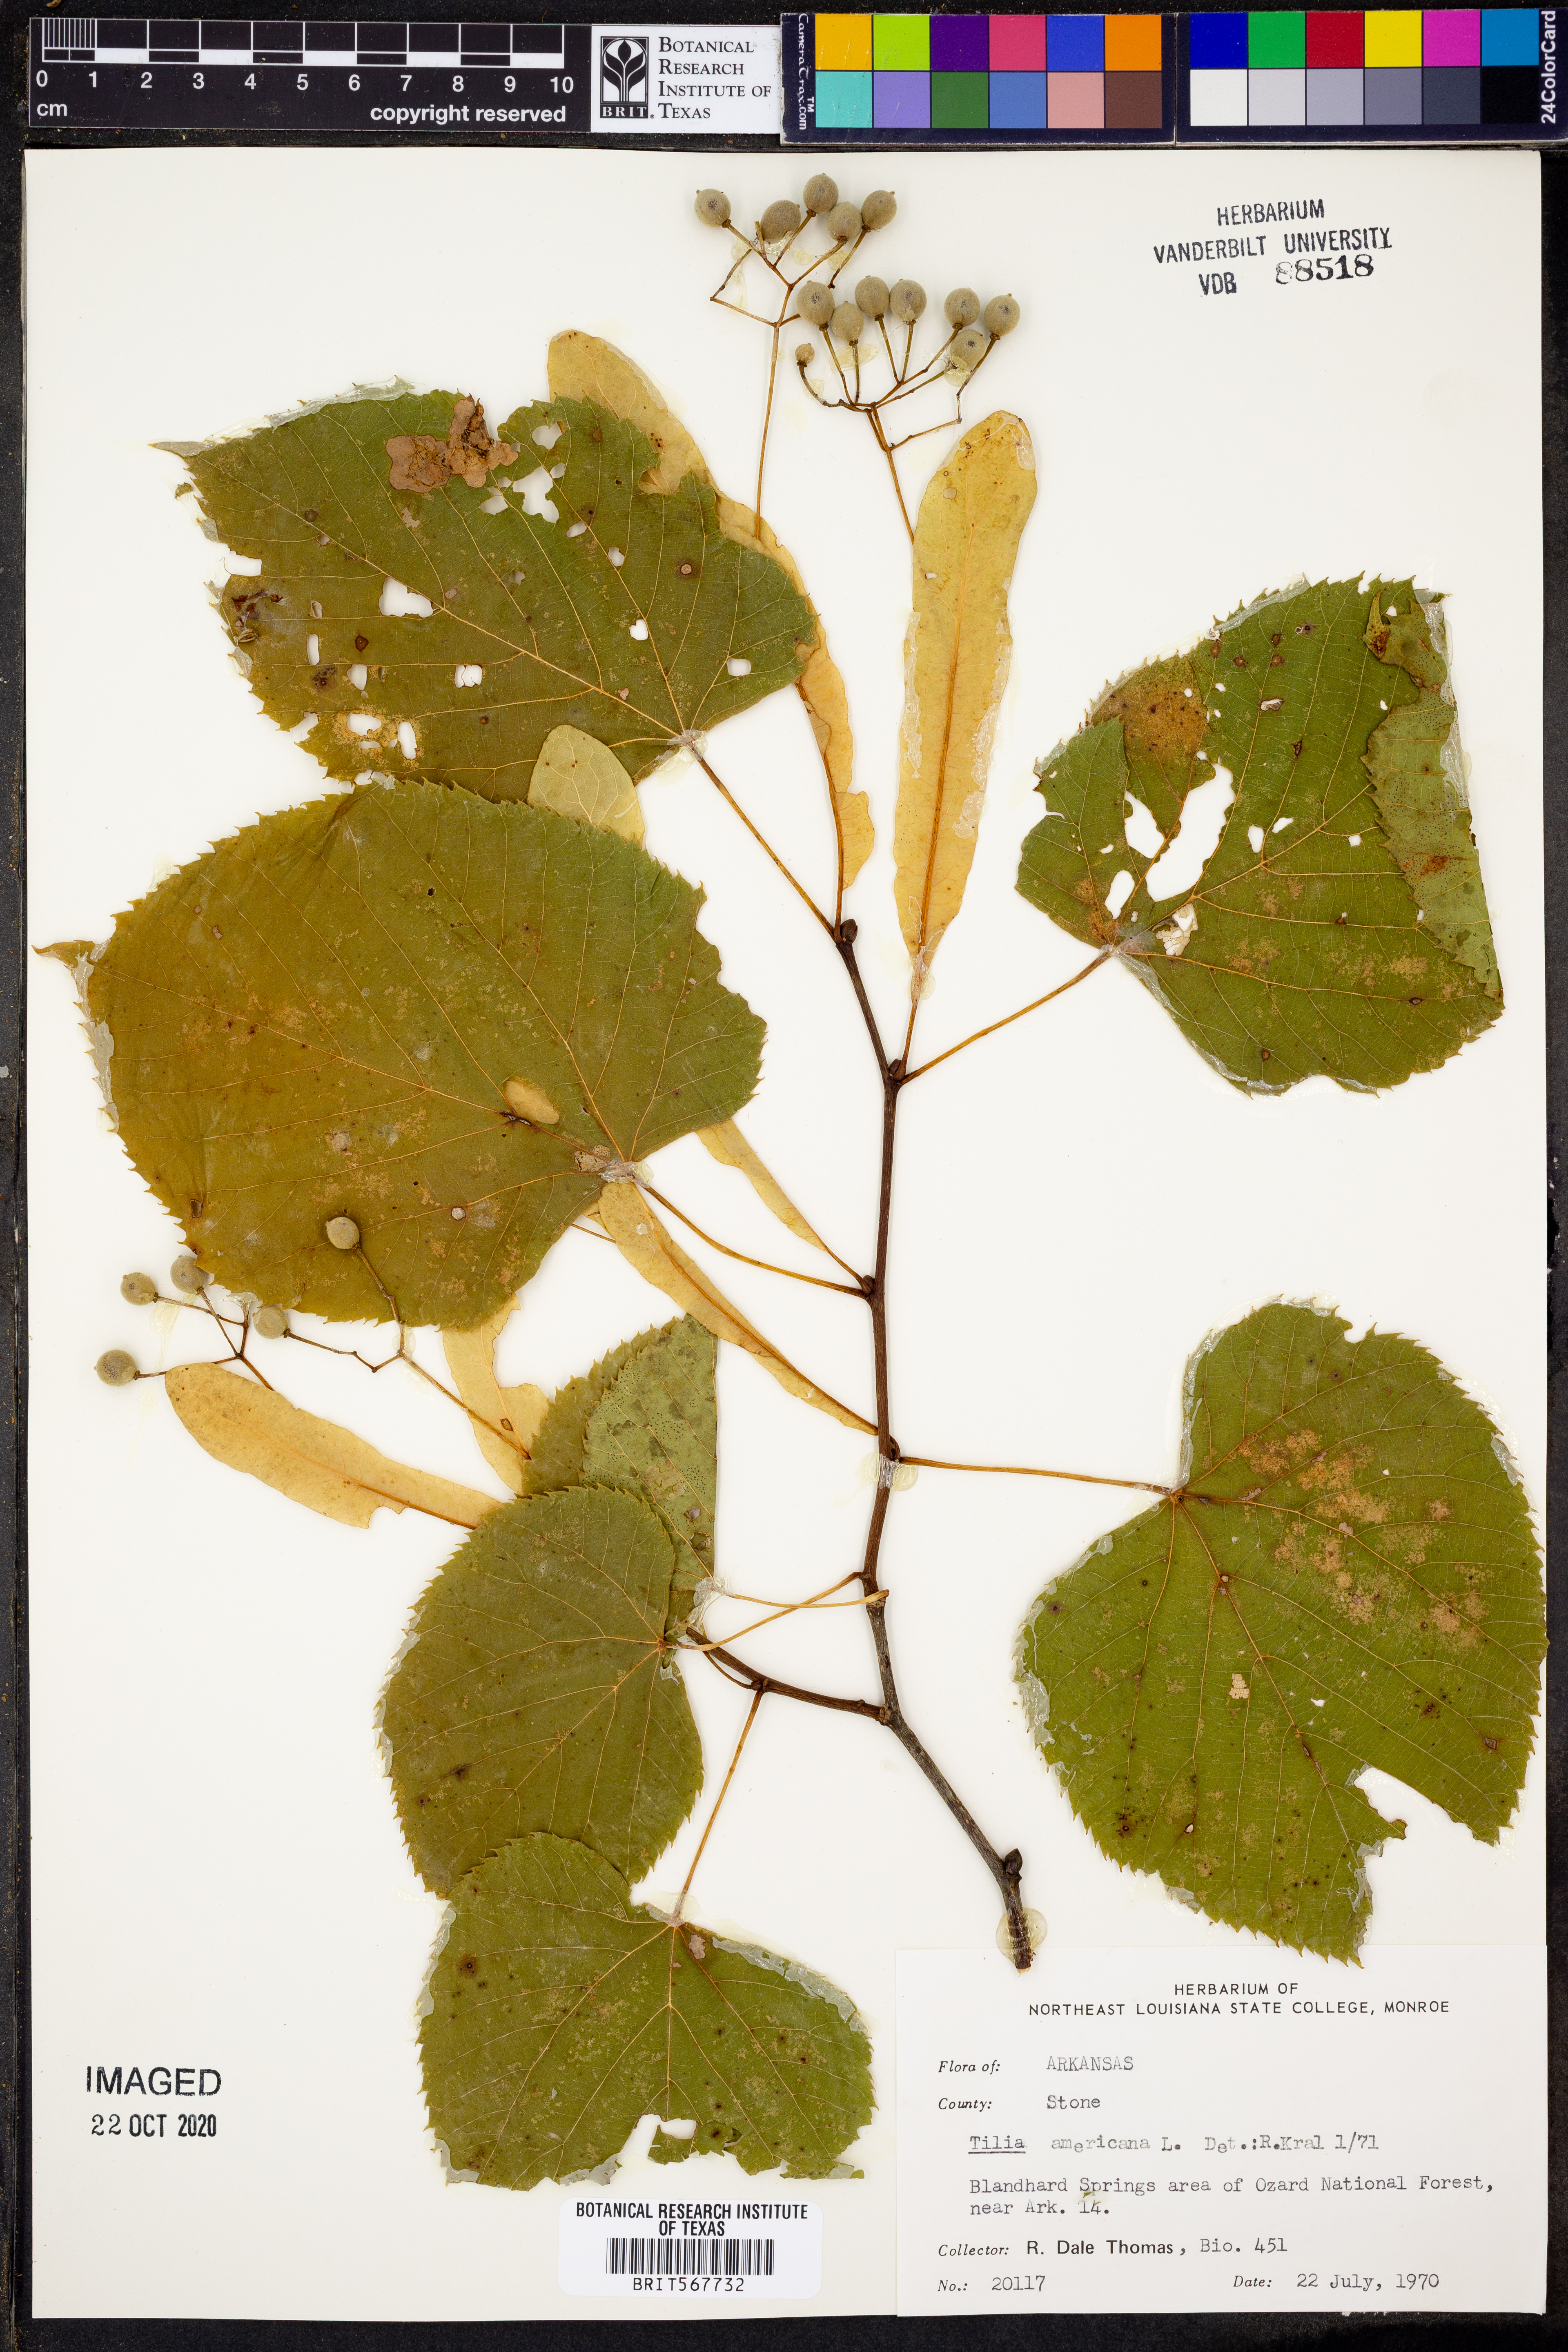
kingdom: Plantae
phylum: Tracheophyta
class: Magnoliopsida
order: Malvales
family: Malvaceae
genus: Tilia
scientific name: Tilia americana
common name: Basswood
